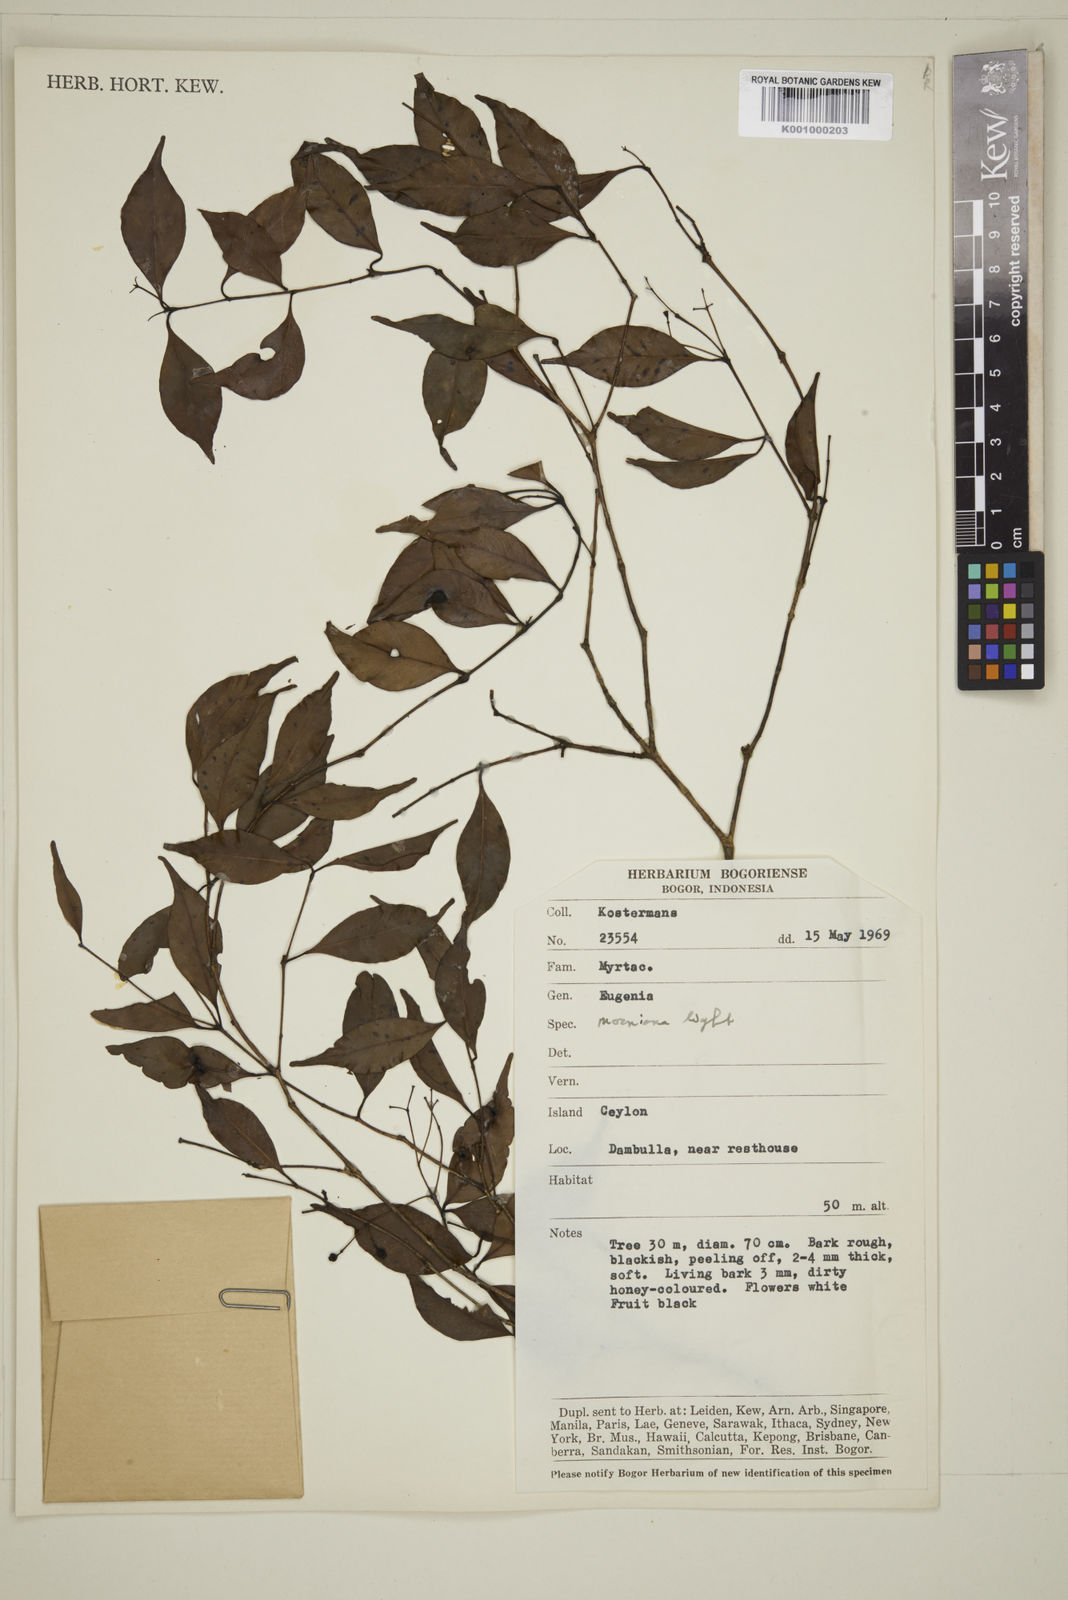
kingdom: Plantae
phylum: Tracheophyta
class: Magnoliopsida
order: Myrtales
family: Myrtaceae
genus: Eugenia
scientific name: Eugenia thwaitesii
